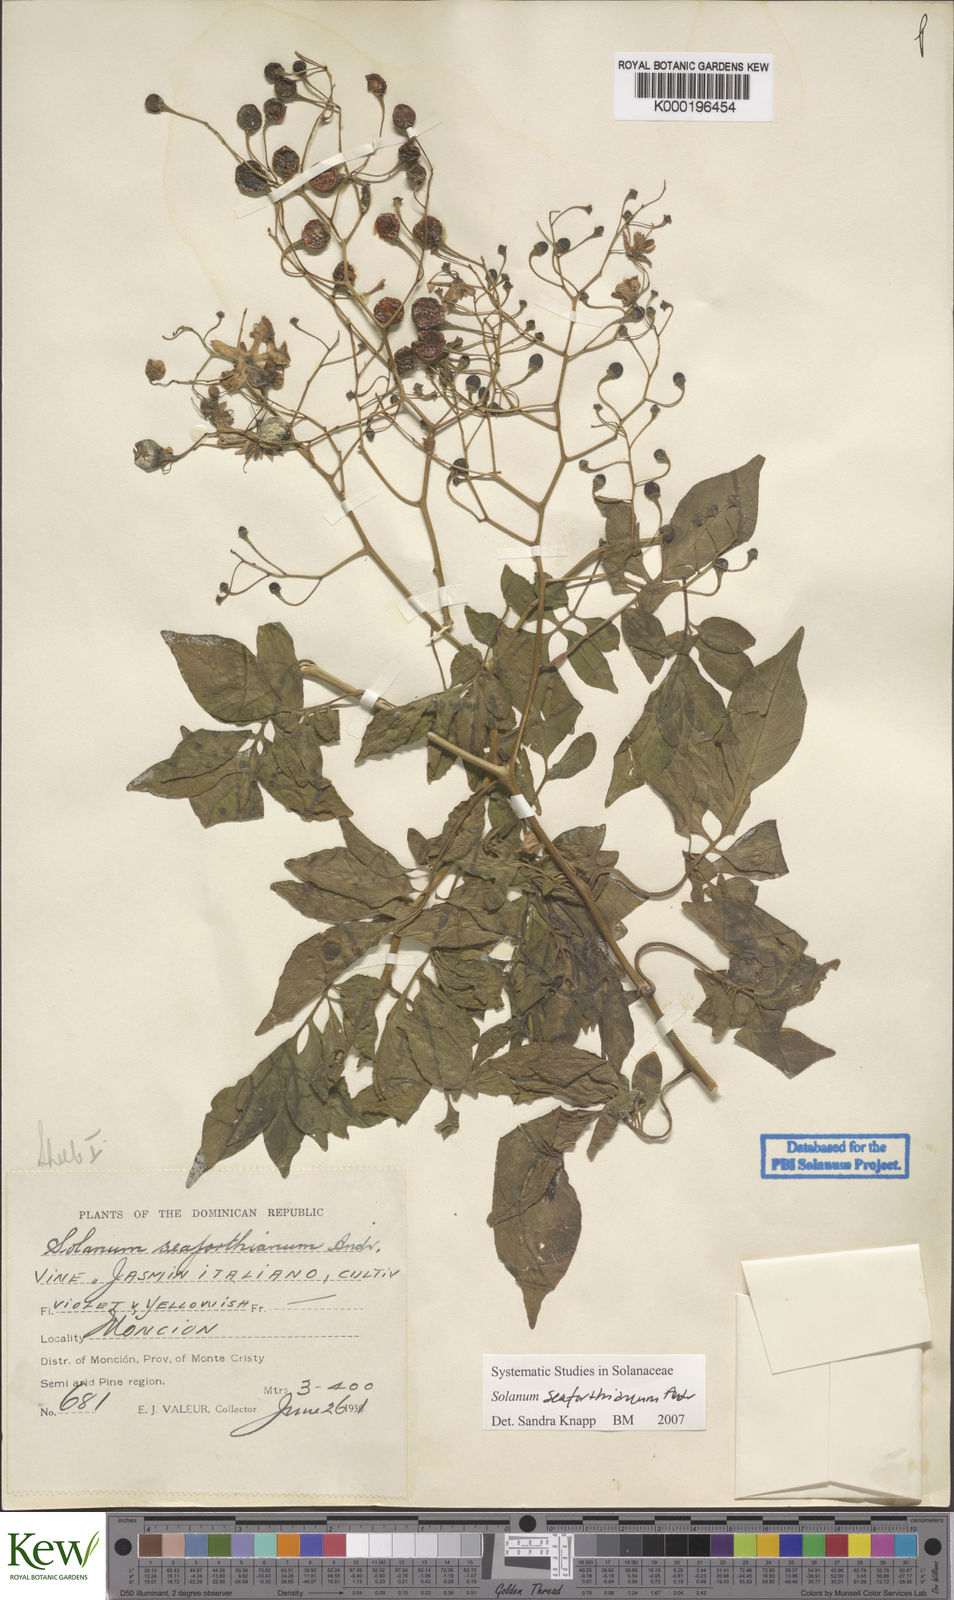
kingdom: Plantae
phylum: Tracheophyta
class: Magnoliopsida
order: Solanales
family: Solanaceae
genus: Solanum
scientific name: Solanum seaforthianum
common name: Brazilian nightshade
